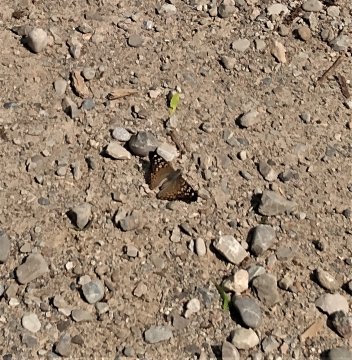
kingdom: Animalia
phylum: Arthropoda
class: Insecta
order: Lepidoptera
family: Nymphalidae
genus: Asterocampa
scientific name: Asterocampa celtis
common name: Hackberry Emperor
